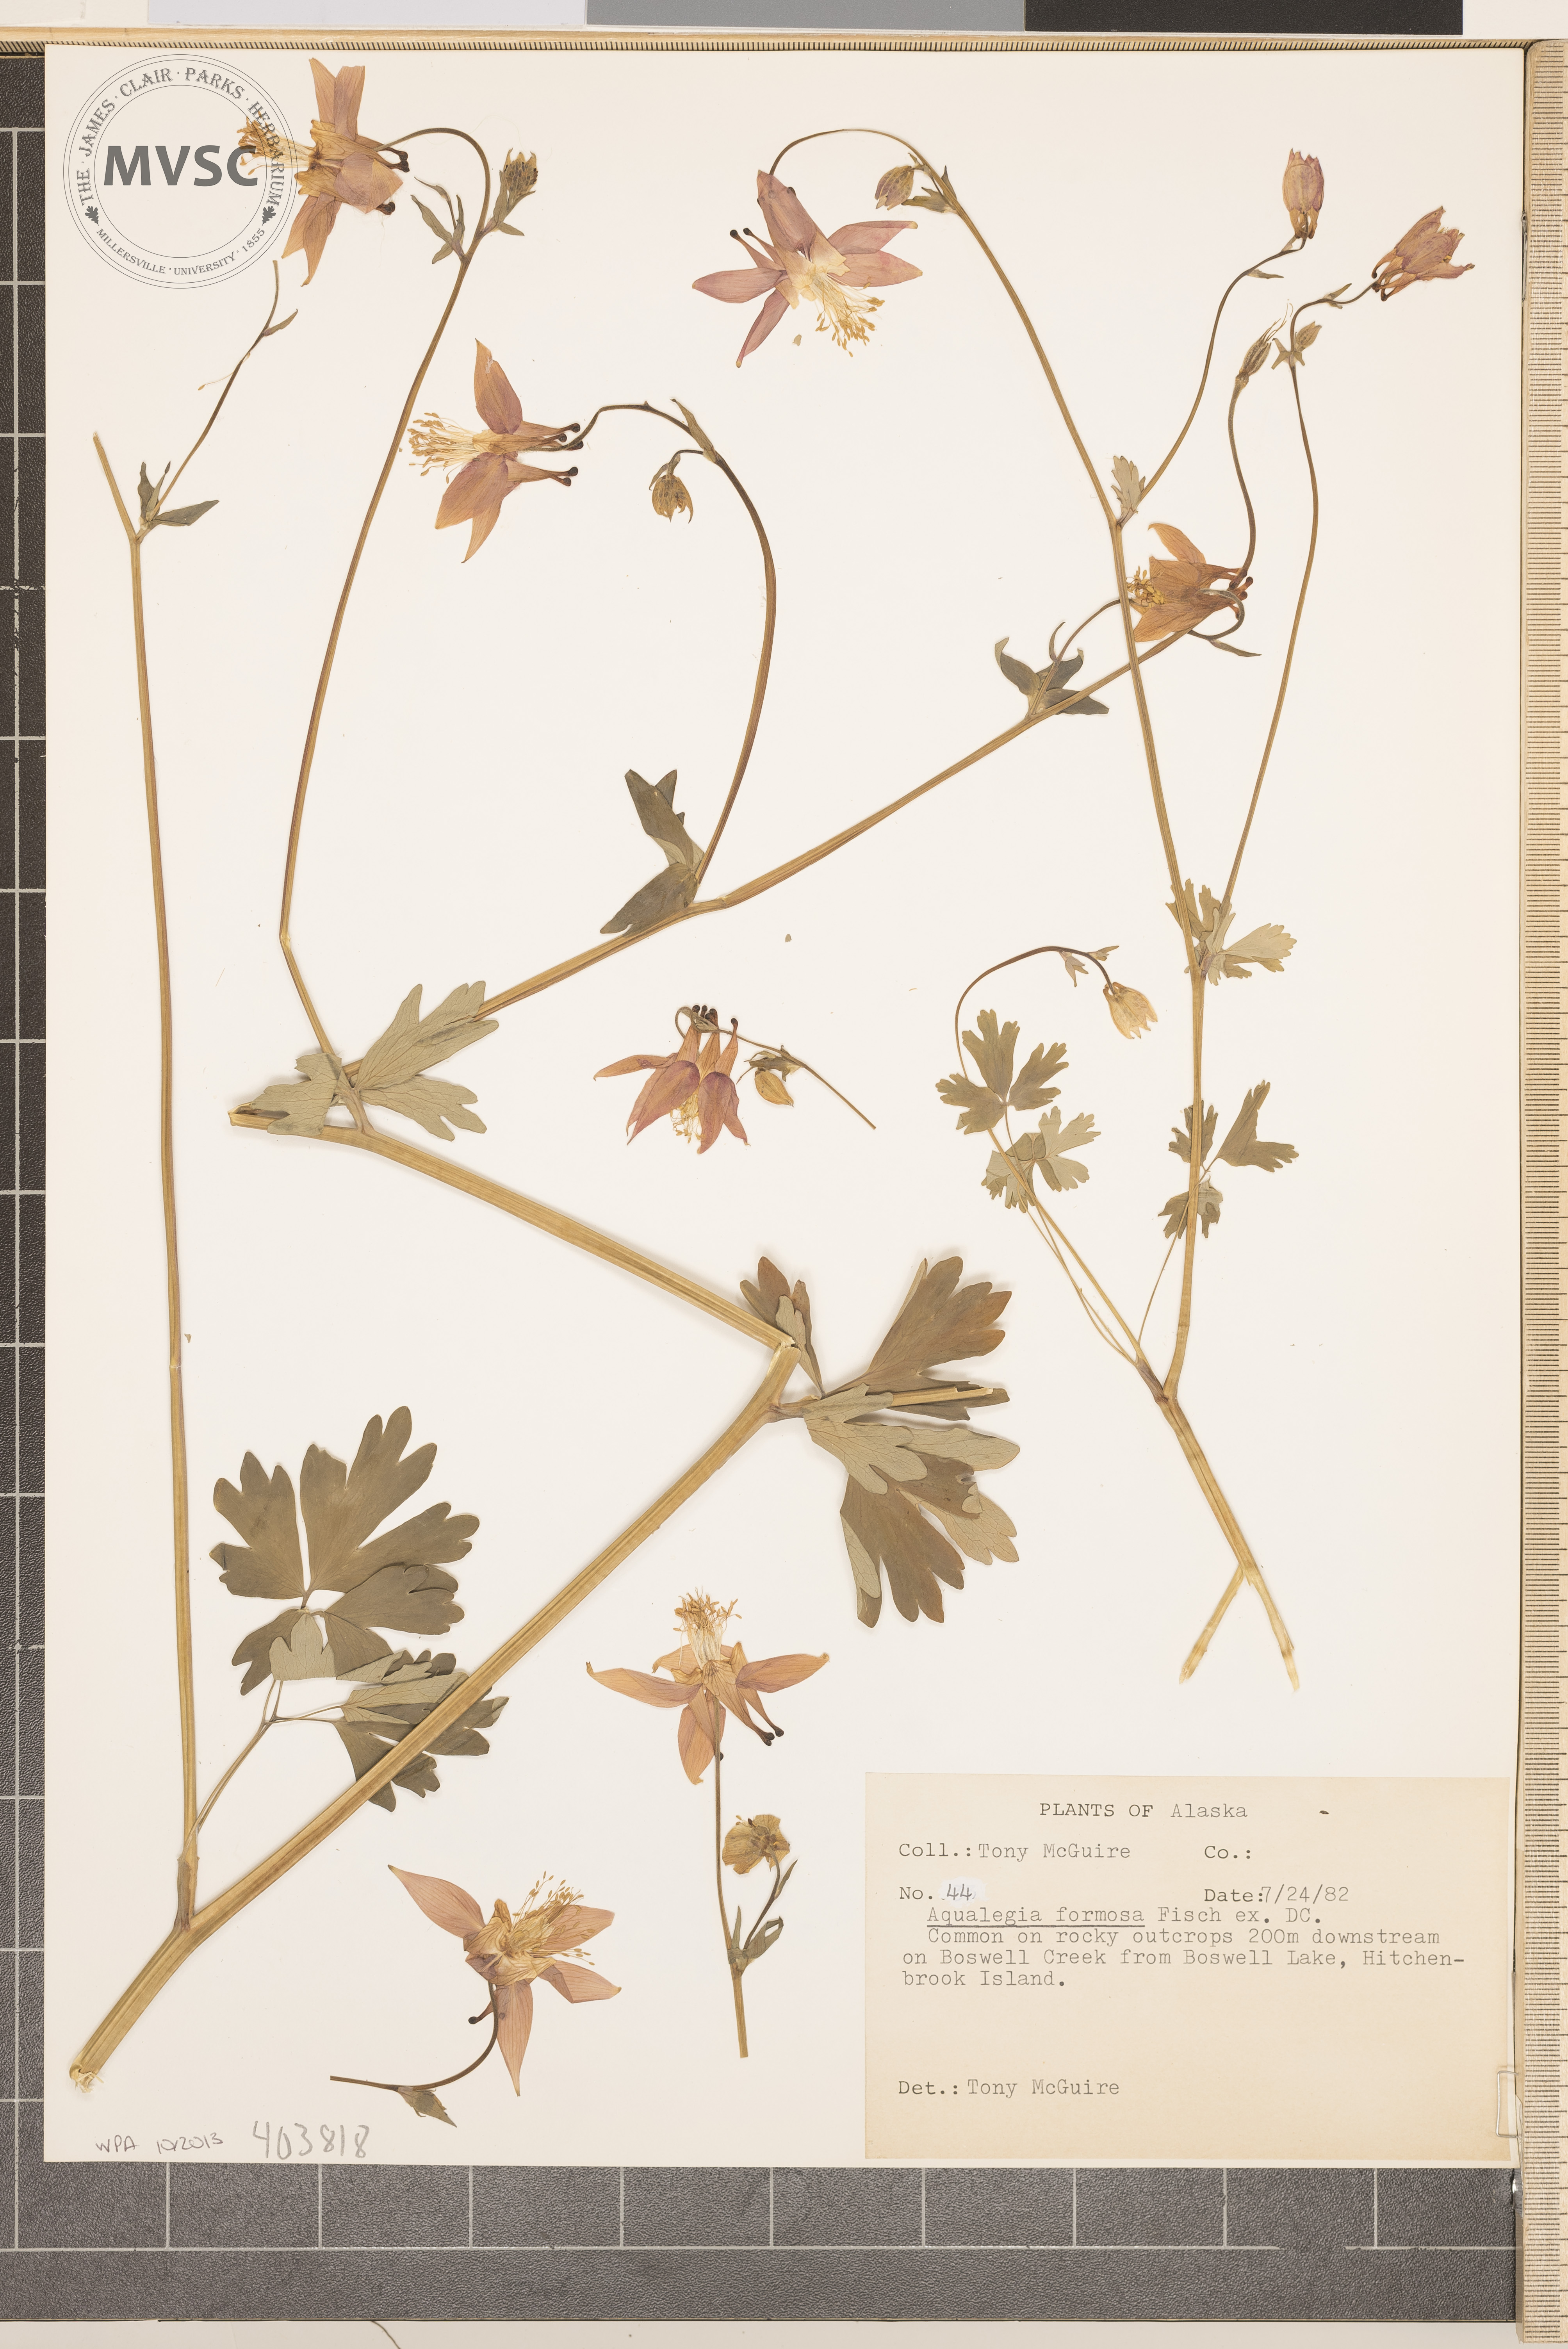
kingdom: Plantae
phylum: Tracheophyta
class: Magnoliopsida
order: Ranunculales
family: Ranunculaceae
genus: Aquilegia
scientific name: Aquilegia formosa
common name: Sitka columbine
